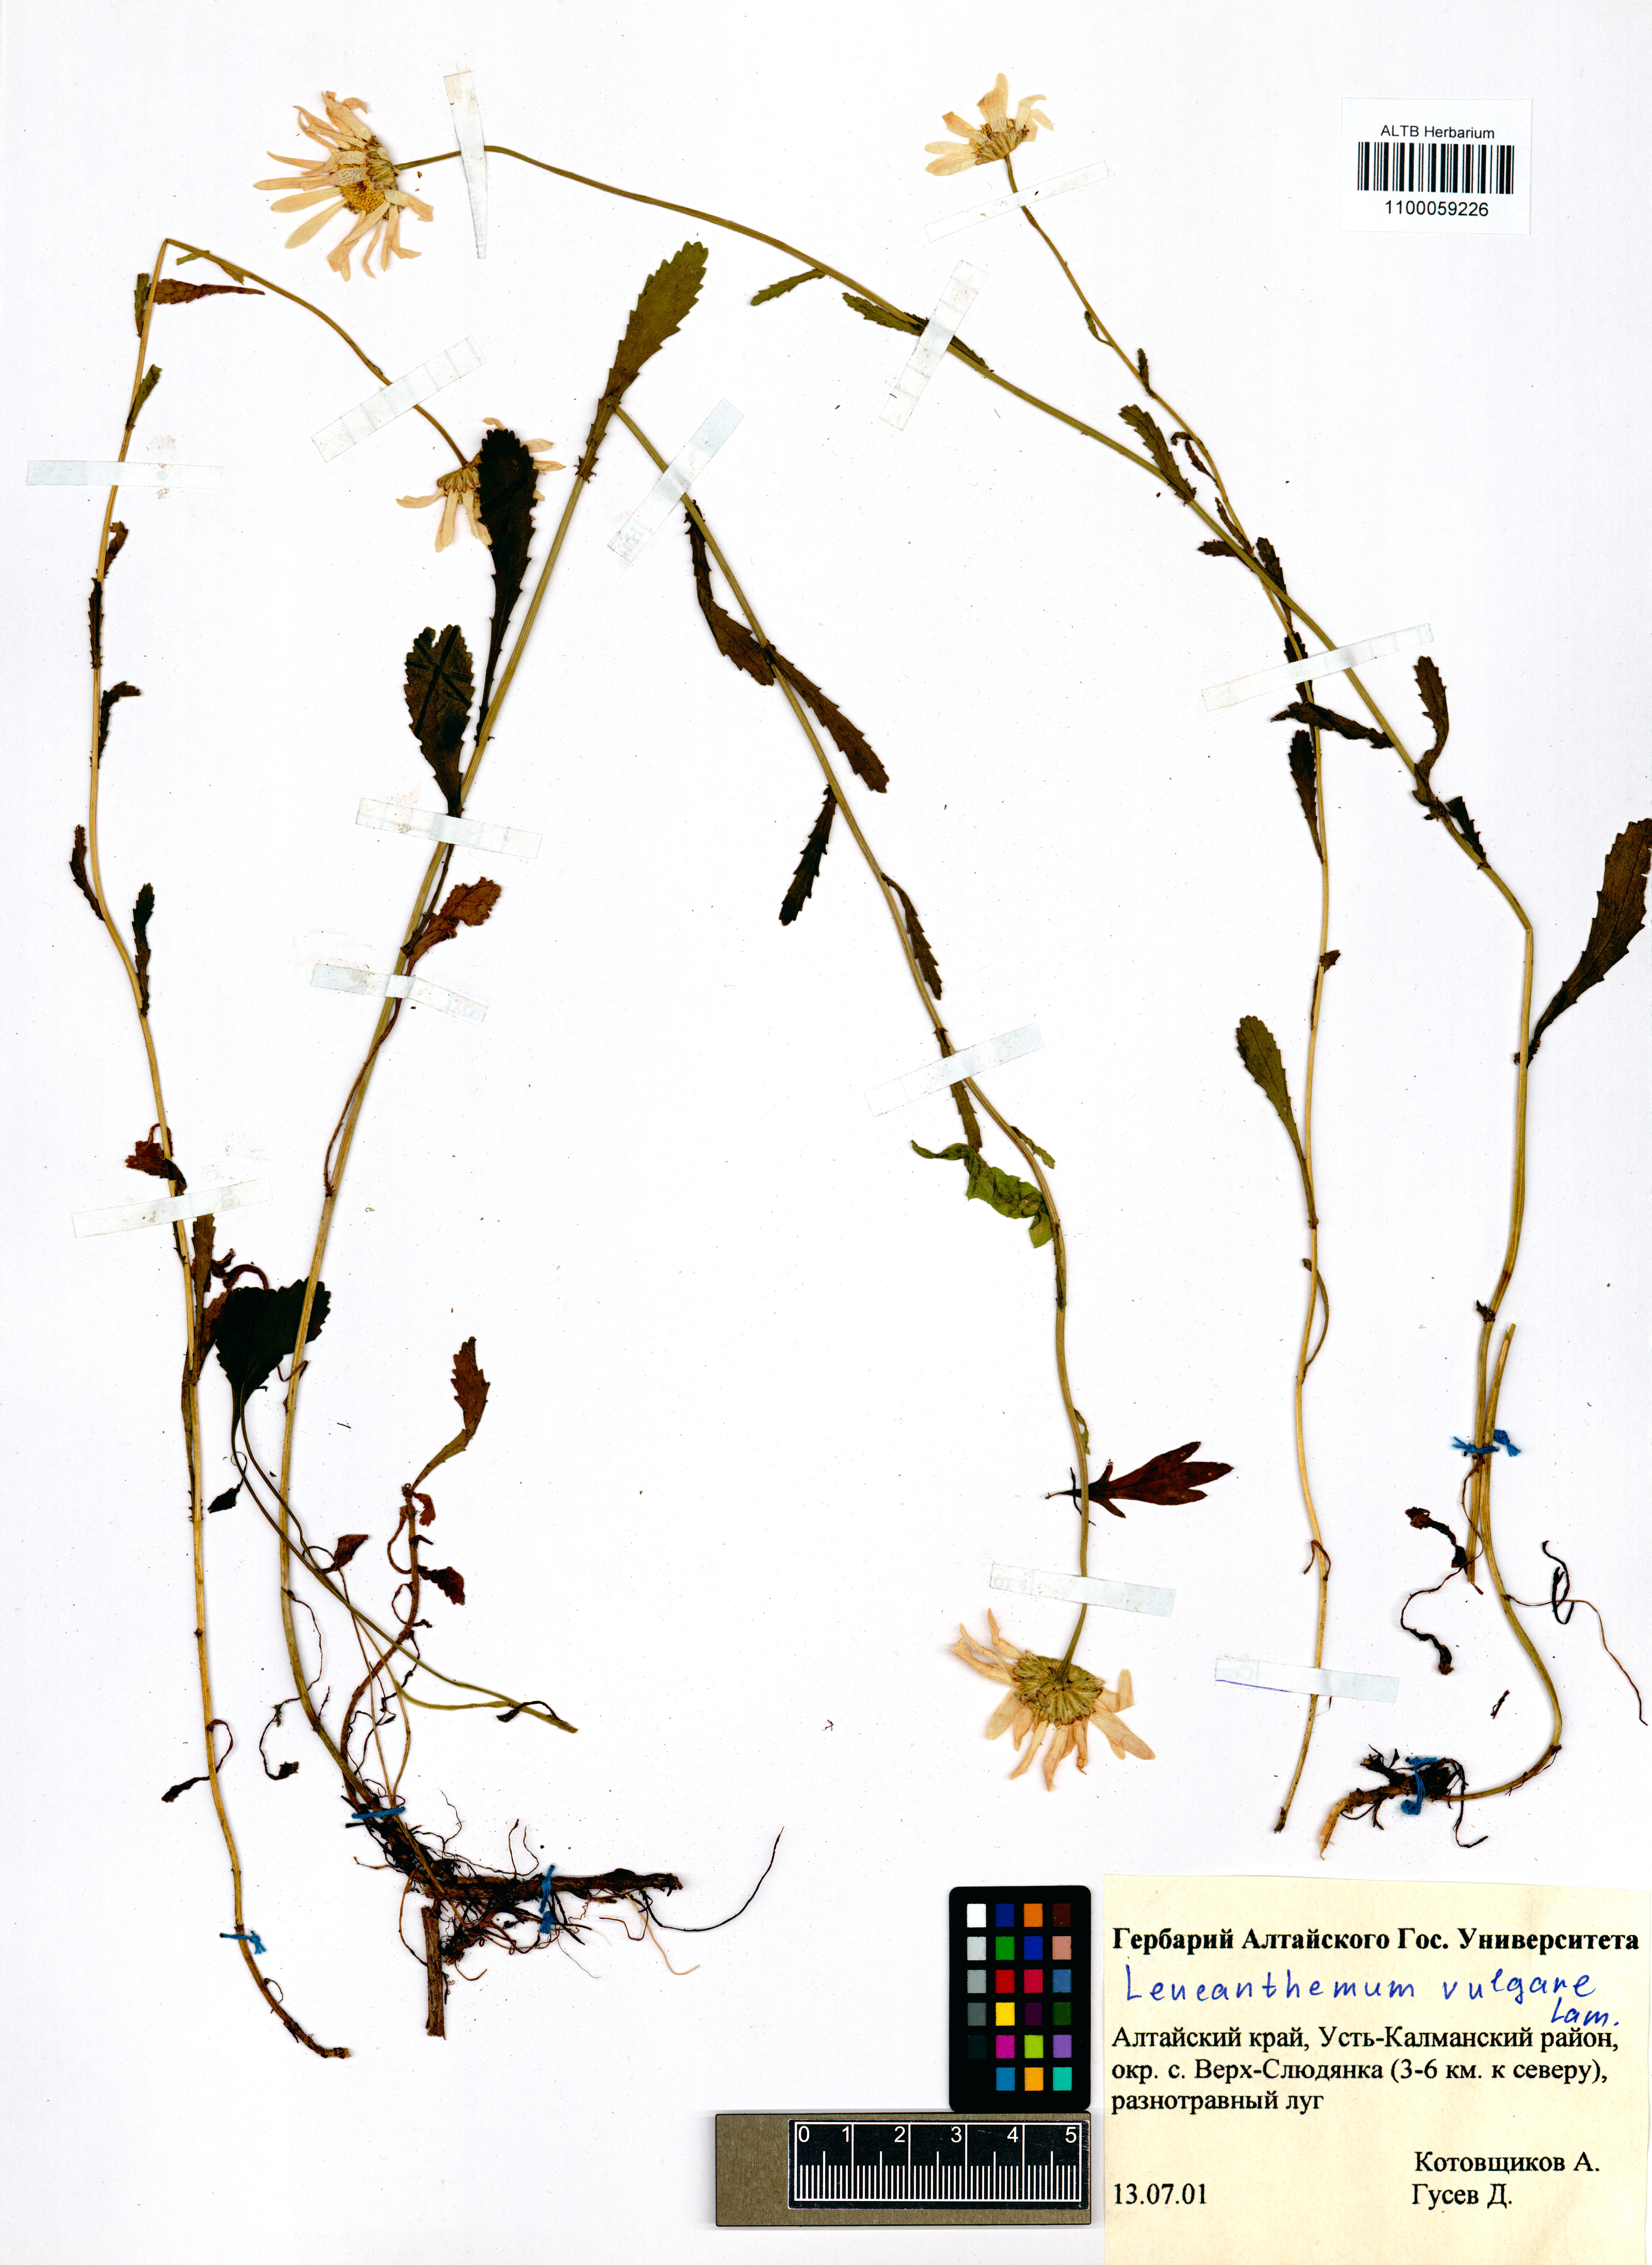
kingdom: Plantae
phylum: Tracheophyta
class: Magnoliopsida
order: Asterales
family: Asteraceae
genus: Leucanthemum
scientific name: Leucanthemum vulgare
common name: Oxeye daisy
